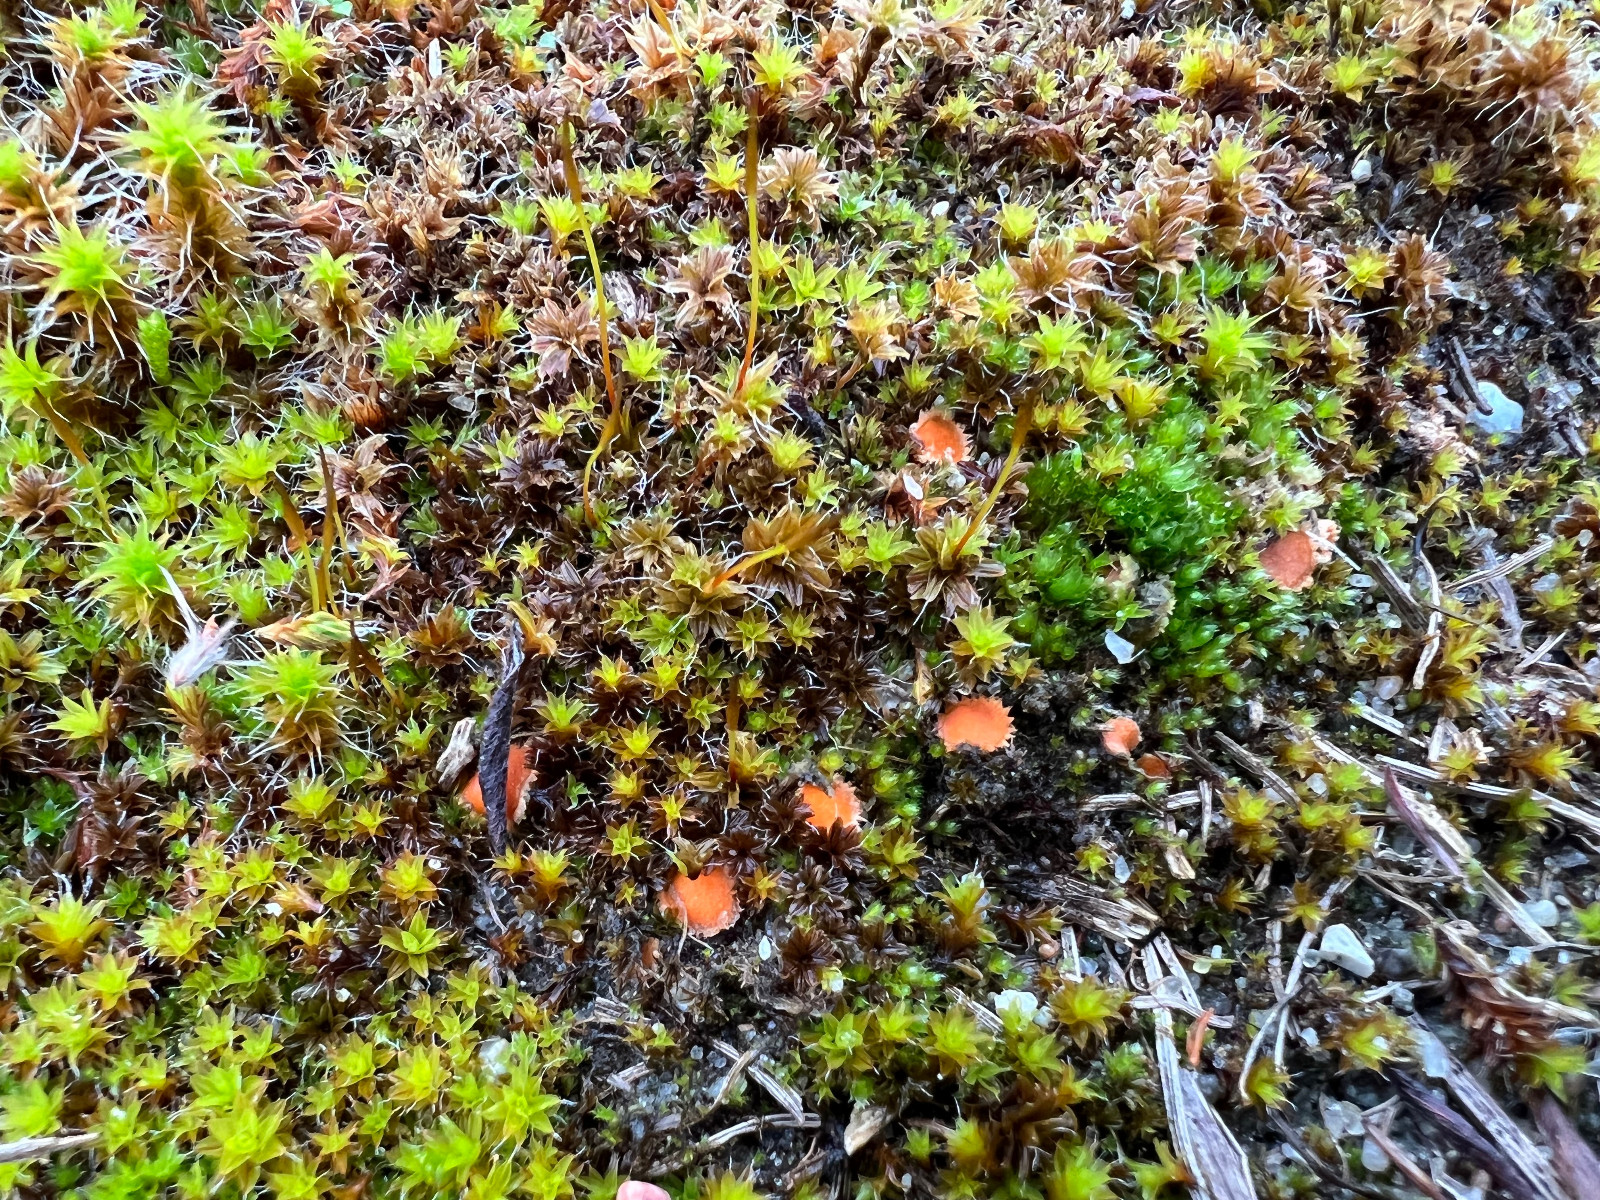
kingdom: Fungi
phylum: Ascomycota
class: Pezizomycetes
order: Pezizales
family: Pyronemataceae
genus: Lamprospora
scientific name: Lamprospora tortulae-ruralis
